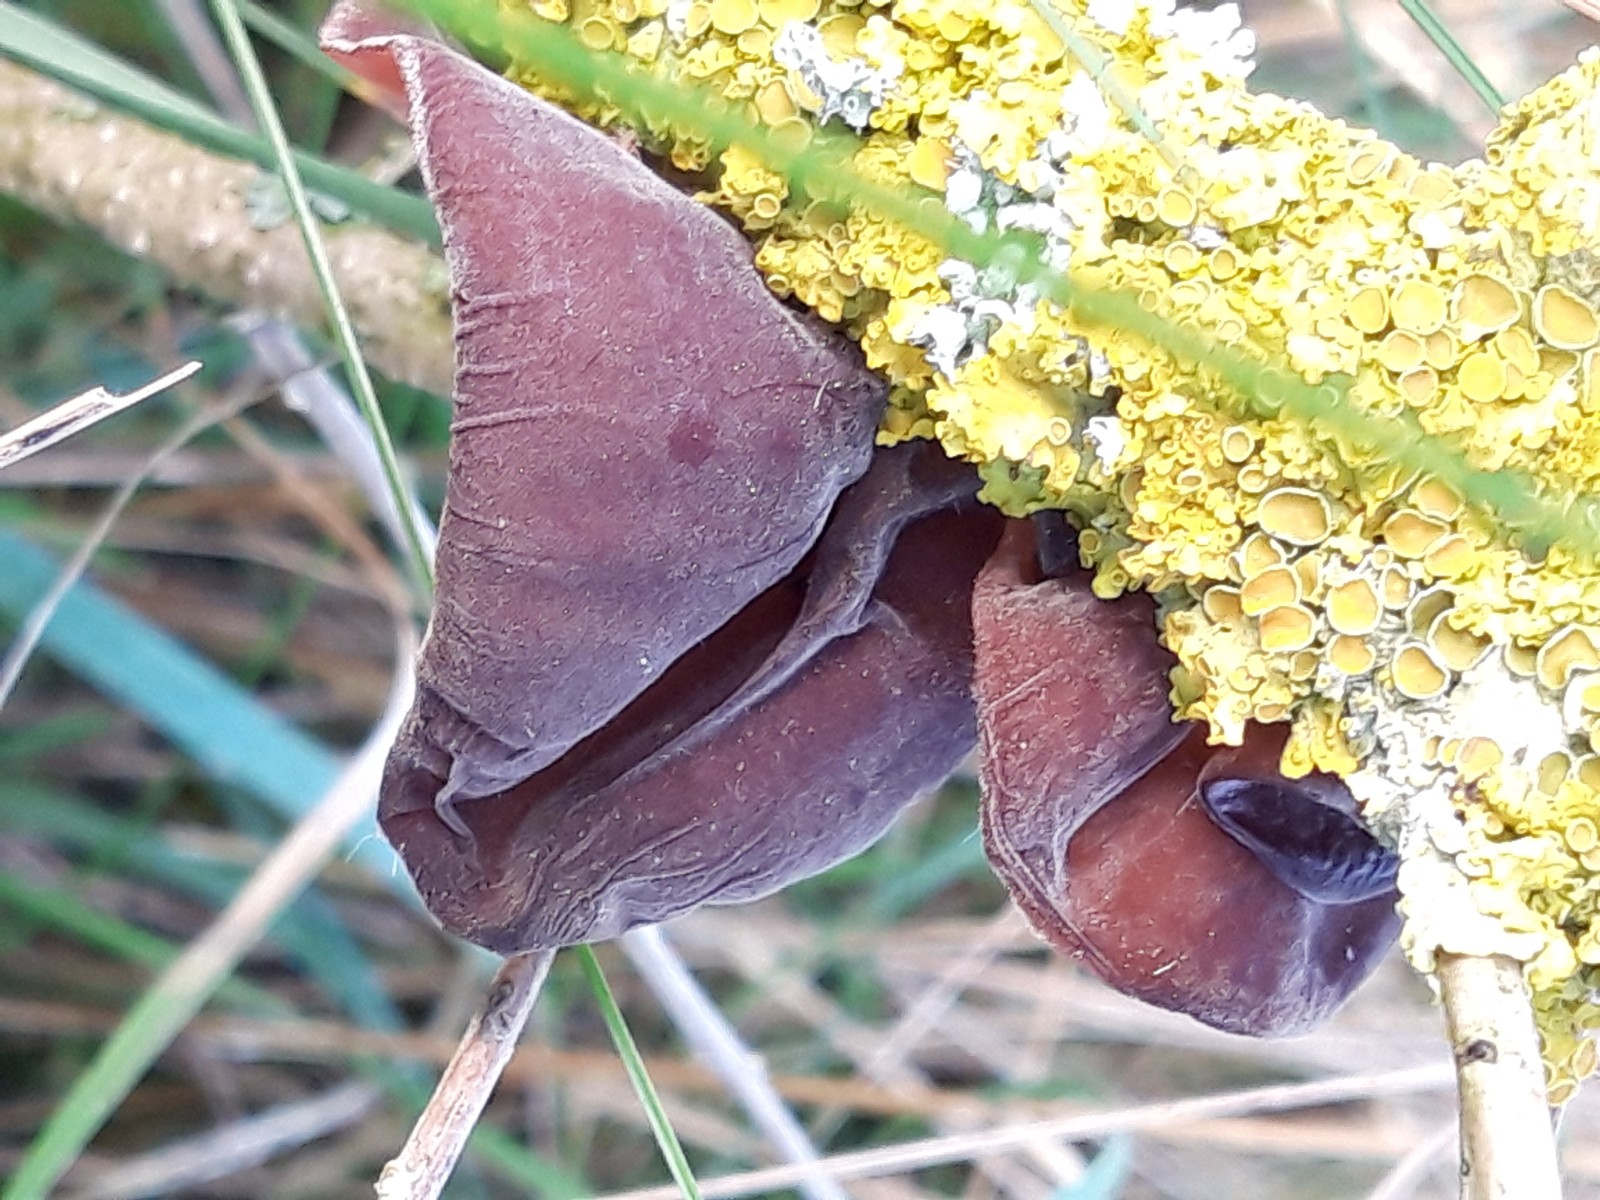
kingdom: Fungi
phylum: Basidiomycota
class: Agaricomycetes
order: Auriculariales
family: Auriculariaceae
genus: Auricularia
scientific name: Auricularia auricula-judae
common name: almindelig judasøre
